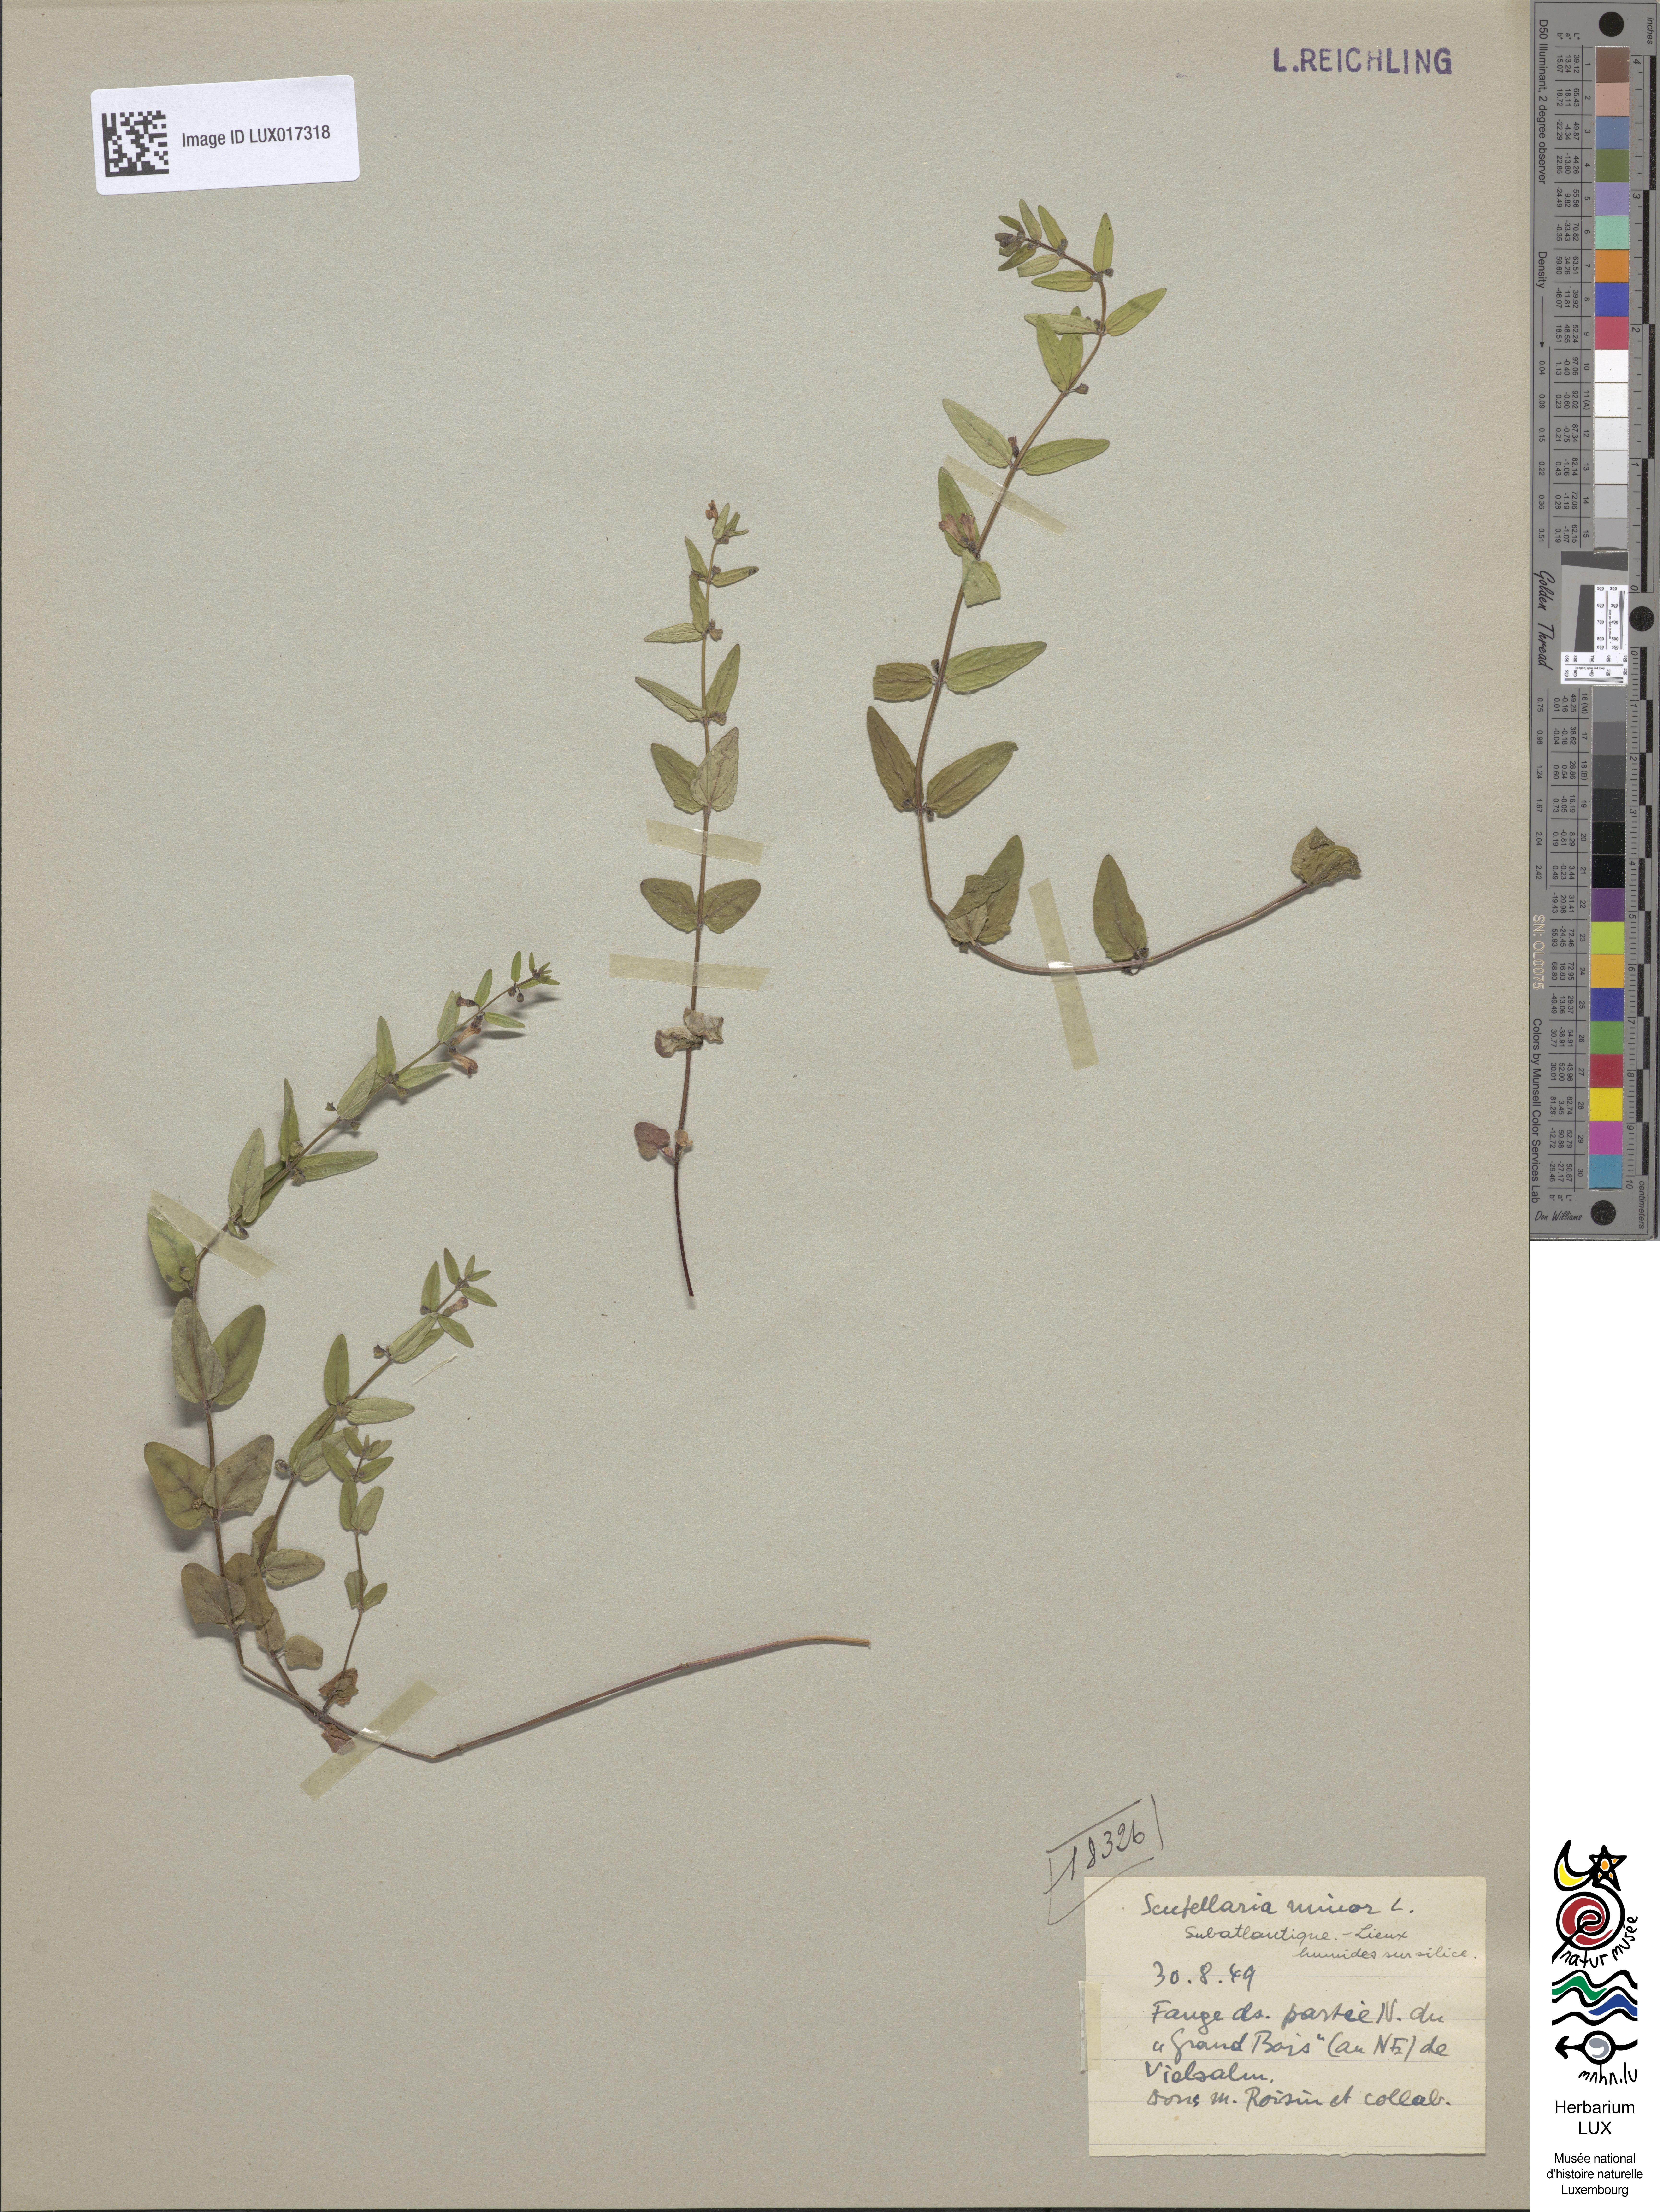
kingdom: Plantae
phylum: Tracheophyta
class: Magnoliopsida
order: Lamiales
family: Lamiaceae
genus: Scutellaria
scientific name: Scutellaria minor
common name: Lesser skullcap
